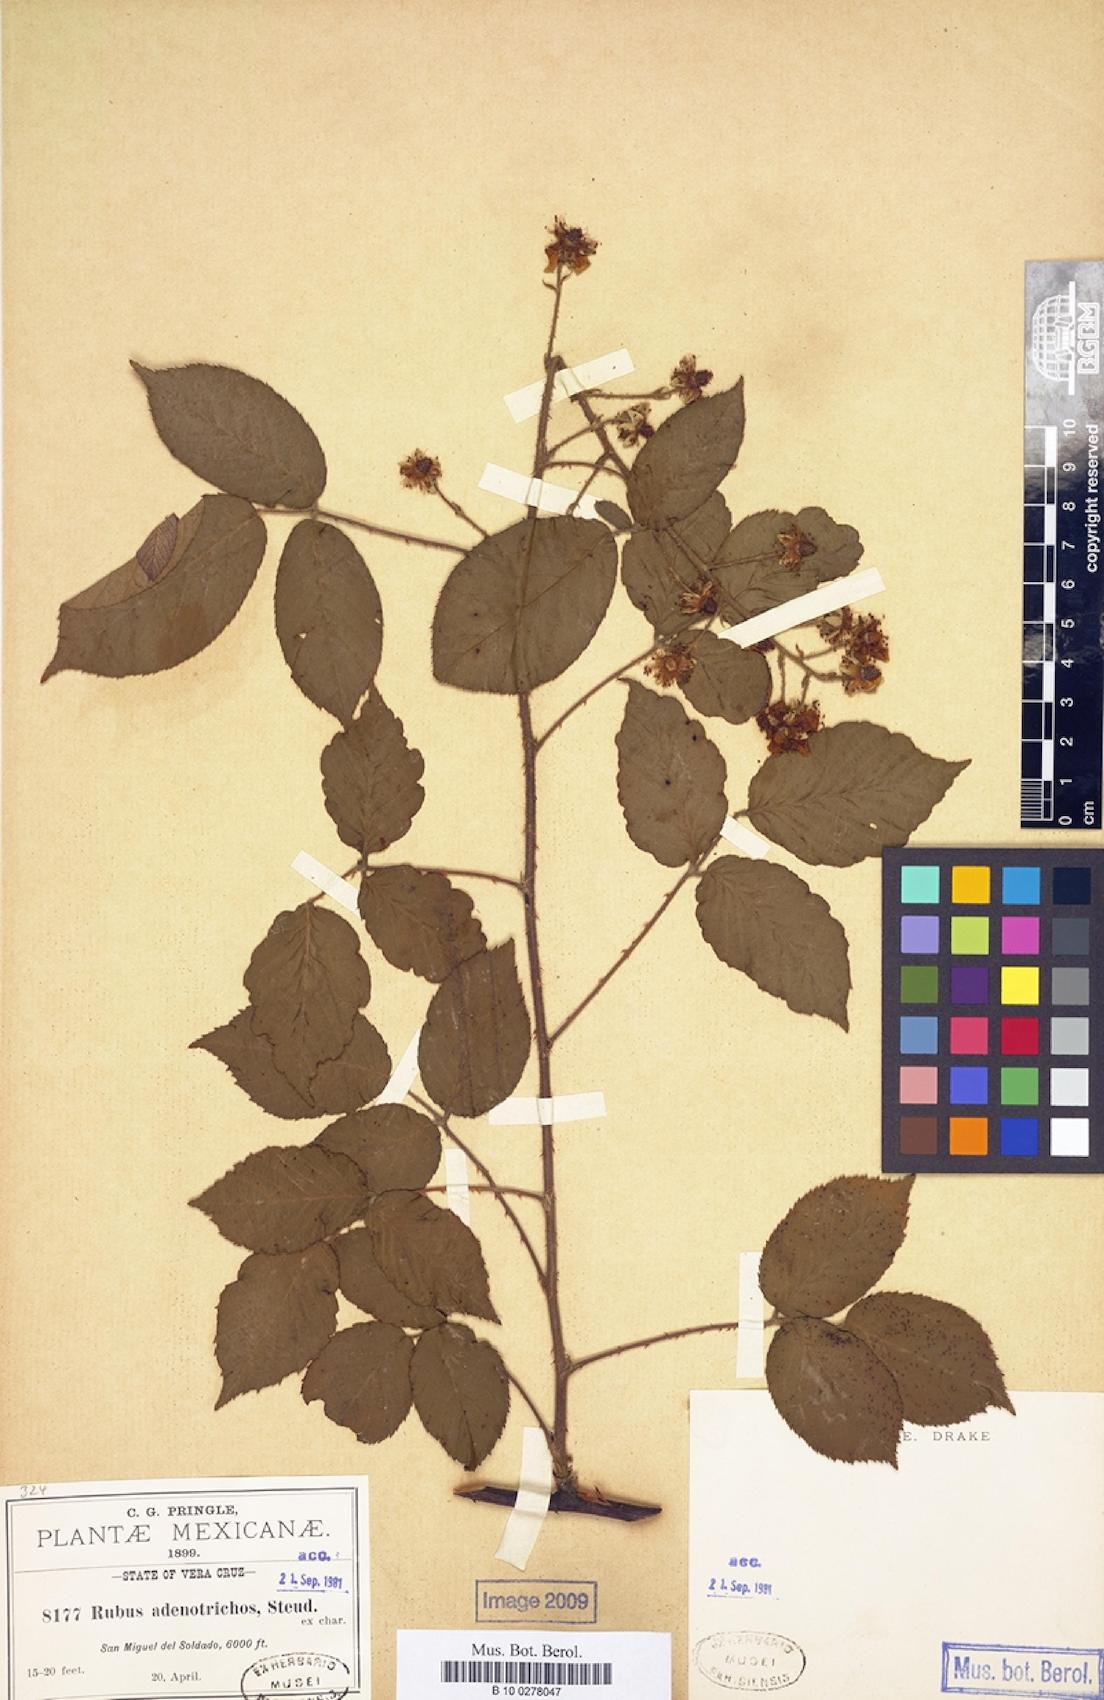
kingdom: Plantae
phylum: Tracheophyta
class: Magnoliopsida
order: Rosales
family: Rosaceae
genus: Rubus
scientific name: Rubus adenotrichos
